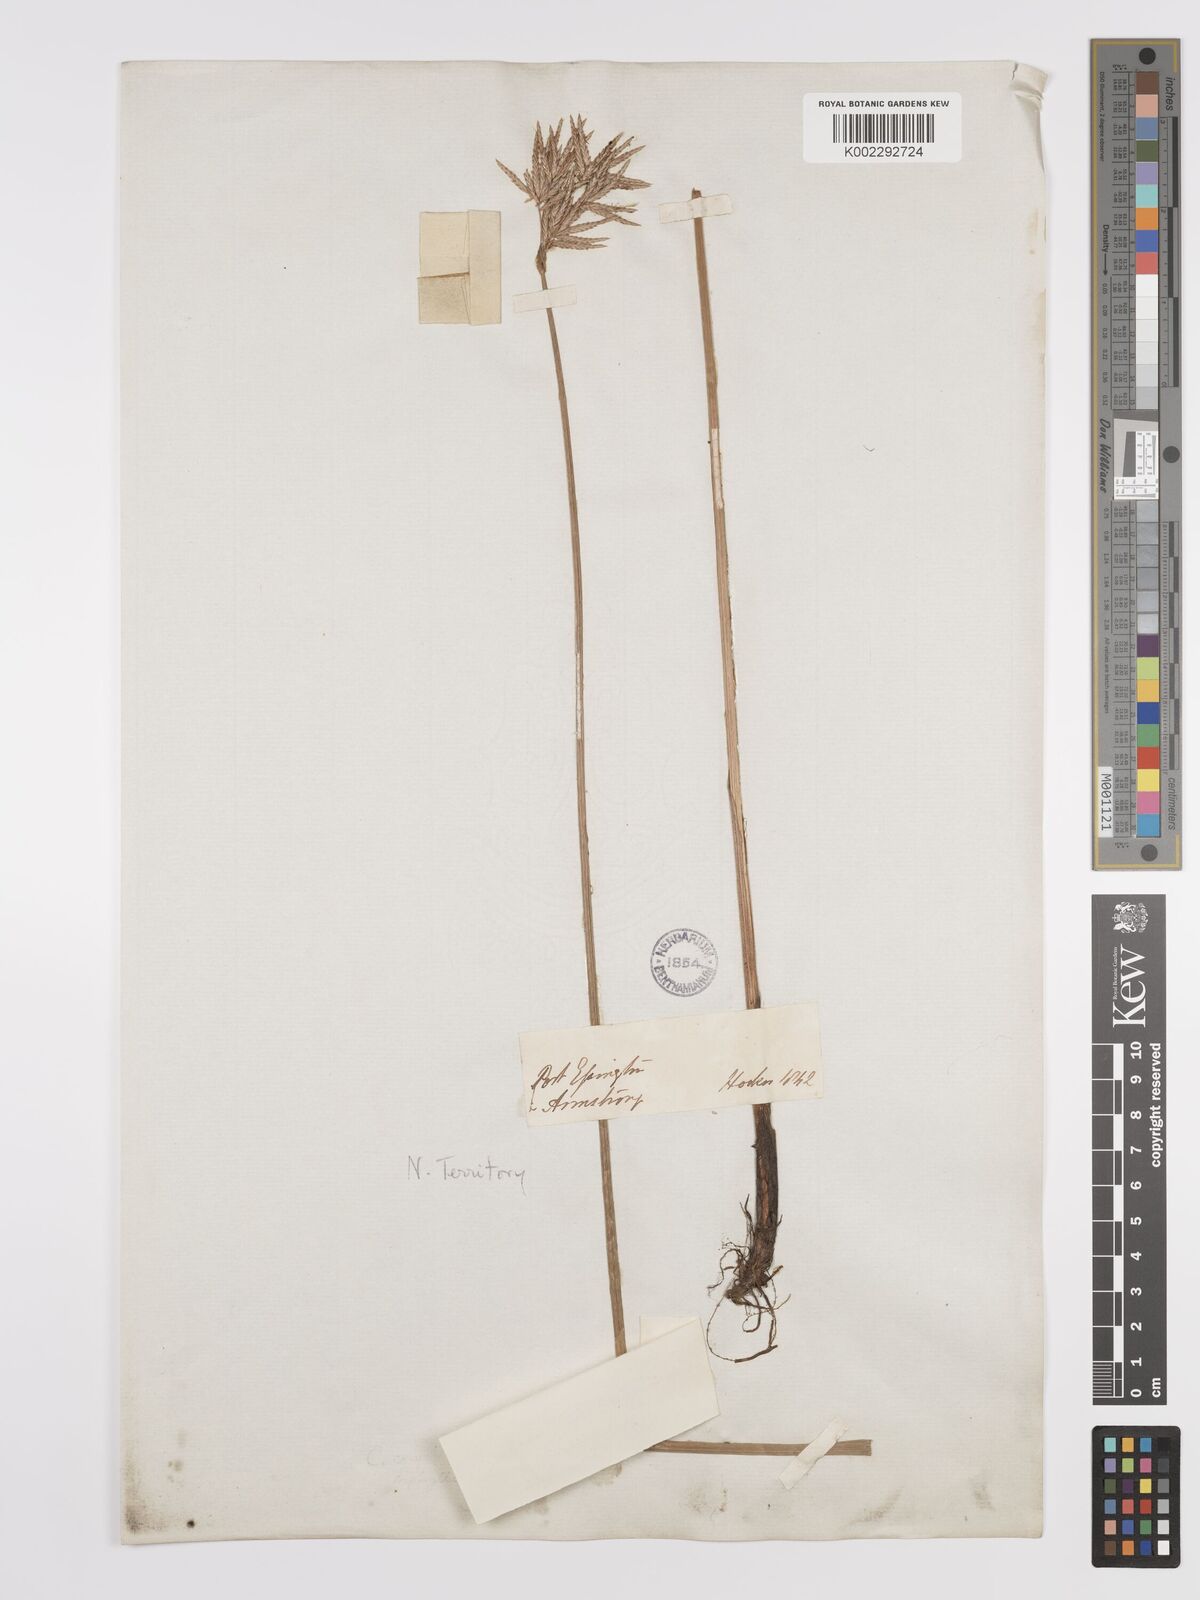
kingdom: Plantae
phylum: Tracheophyta
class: Liliopsida
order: Poales
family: Cyperaceae
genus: Cyperus
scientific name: Cyperus corymbosus
